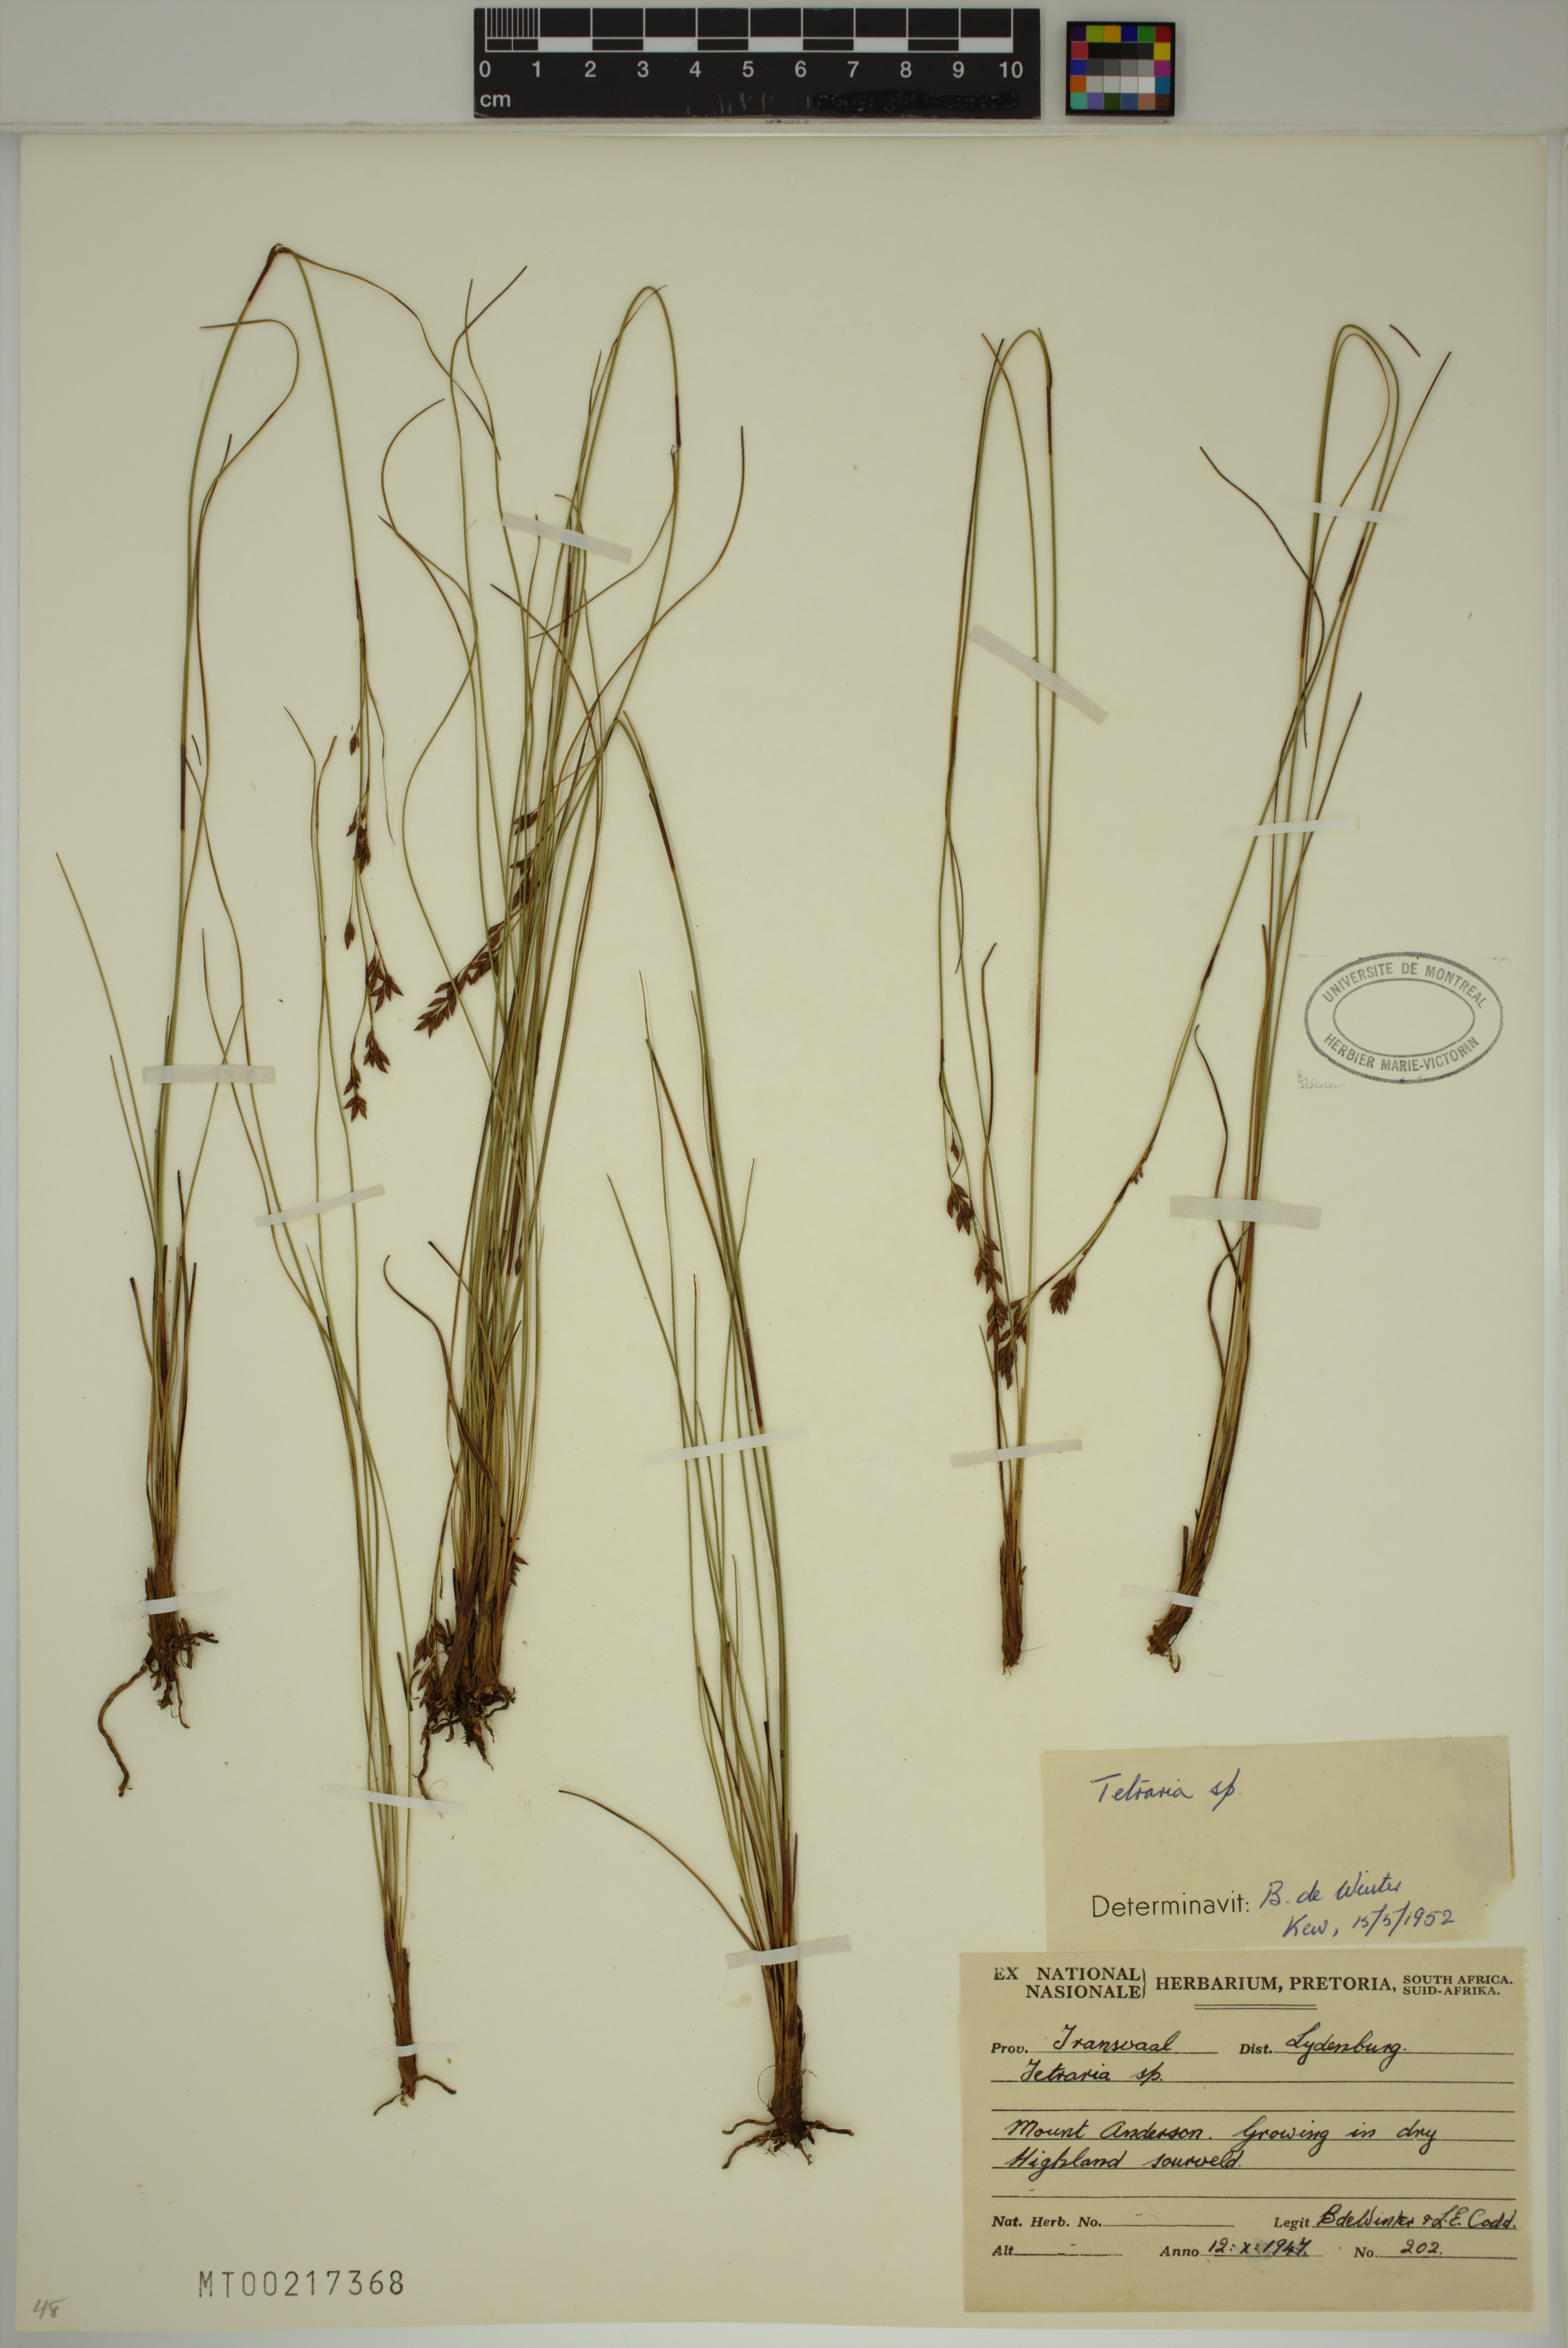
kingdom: Plantae
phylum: Tracheophyta
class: Liliopsida
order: Poales
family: Cyperaceae
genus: Tetraria
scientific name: Tetraria
